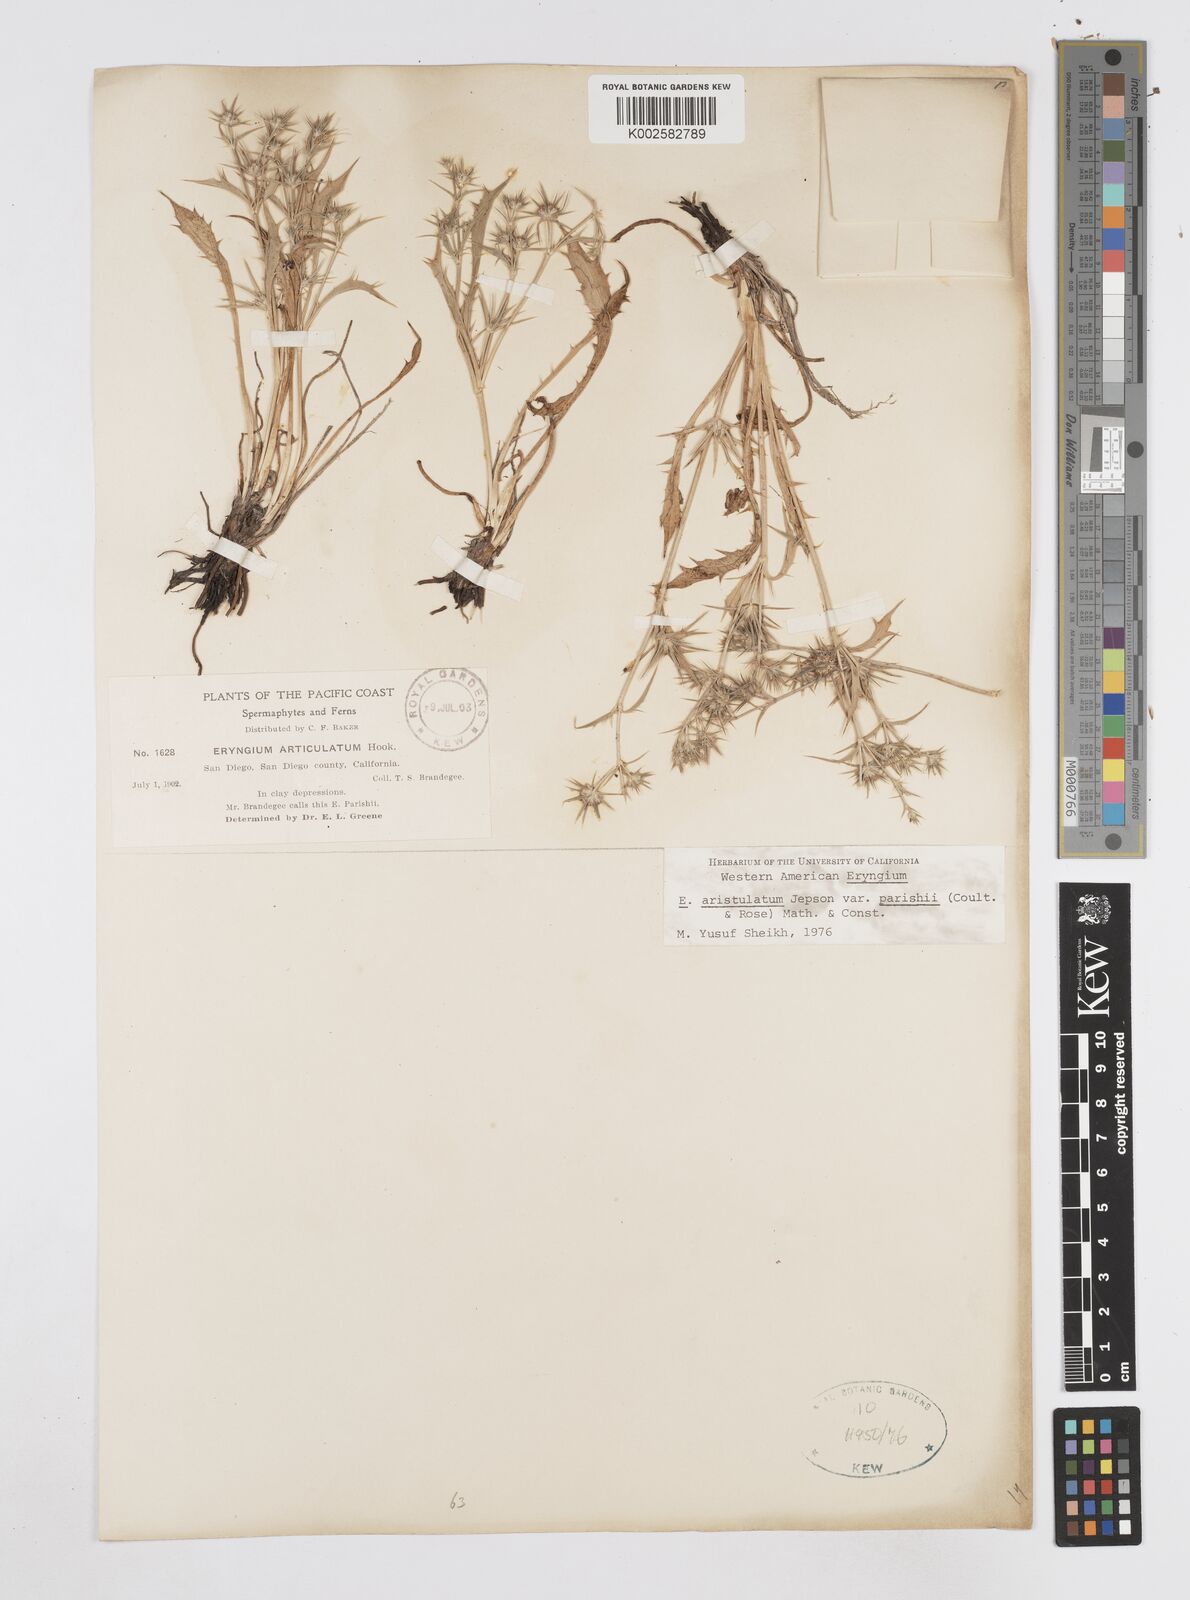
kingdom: Plantae
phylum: Tracheophyta
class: Magnoliopsida
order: Apiales
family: Apiaceae
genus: Eryngium
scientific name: Eryngium aristulatum
